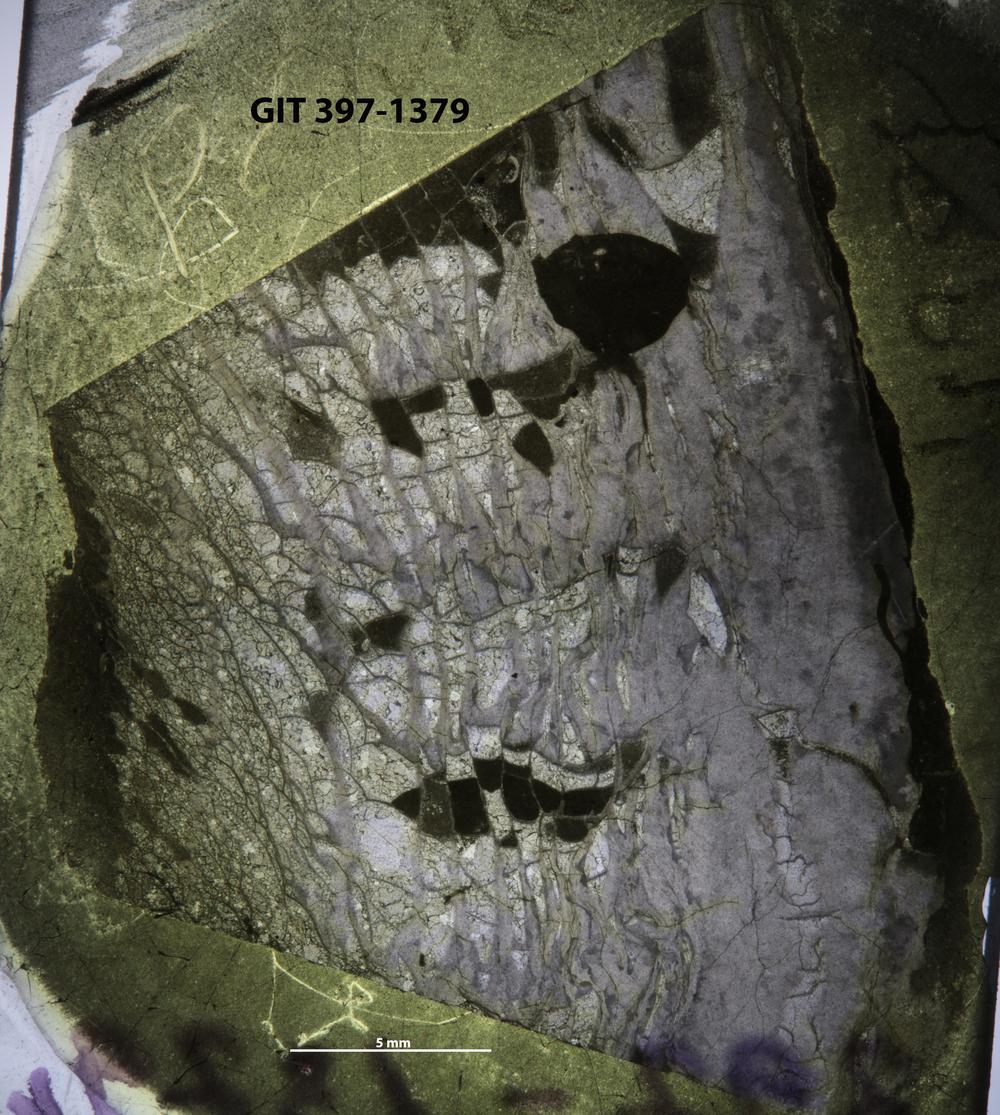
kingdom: Animalia
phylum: Cnidaria
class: Anthozoa
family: Lykophyllidae
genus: Phaulactis
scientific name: Phaulactis
